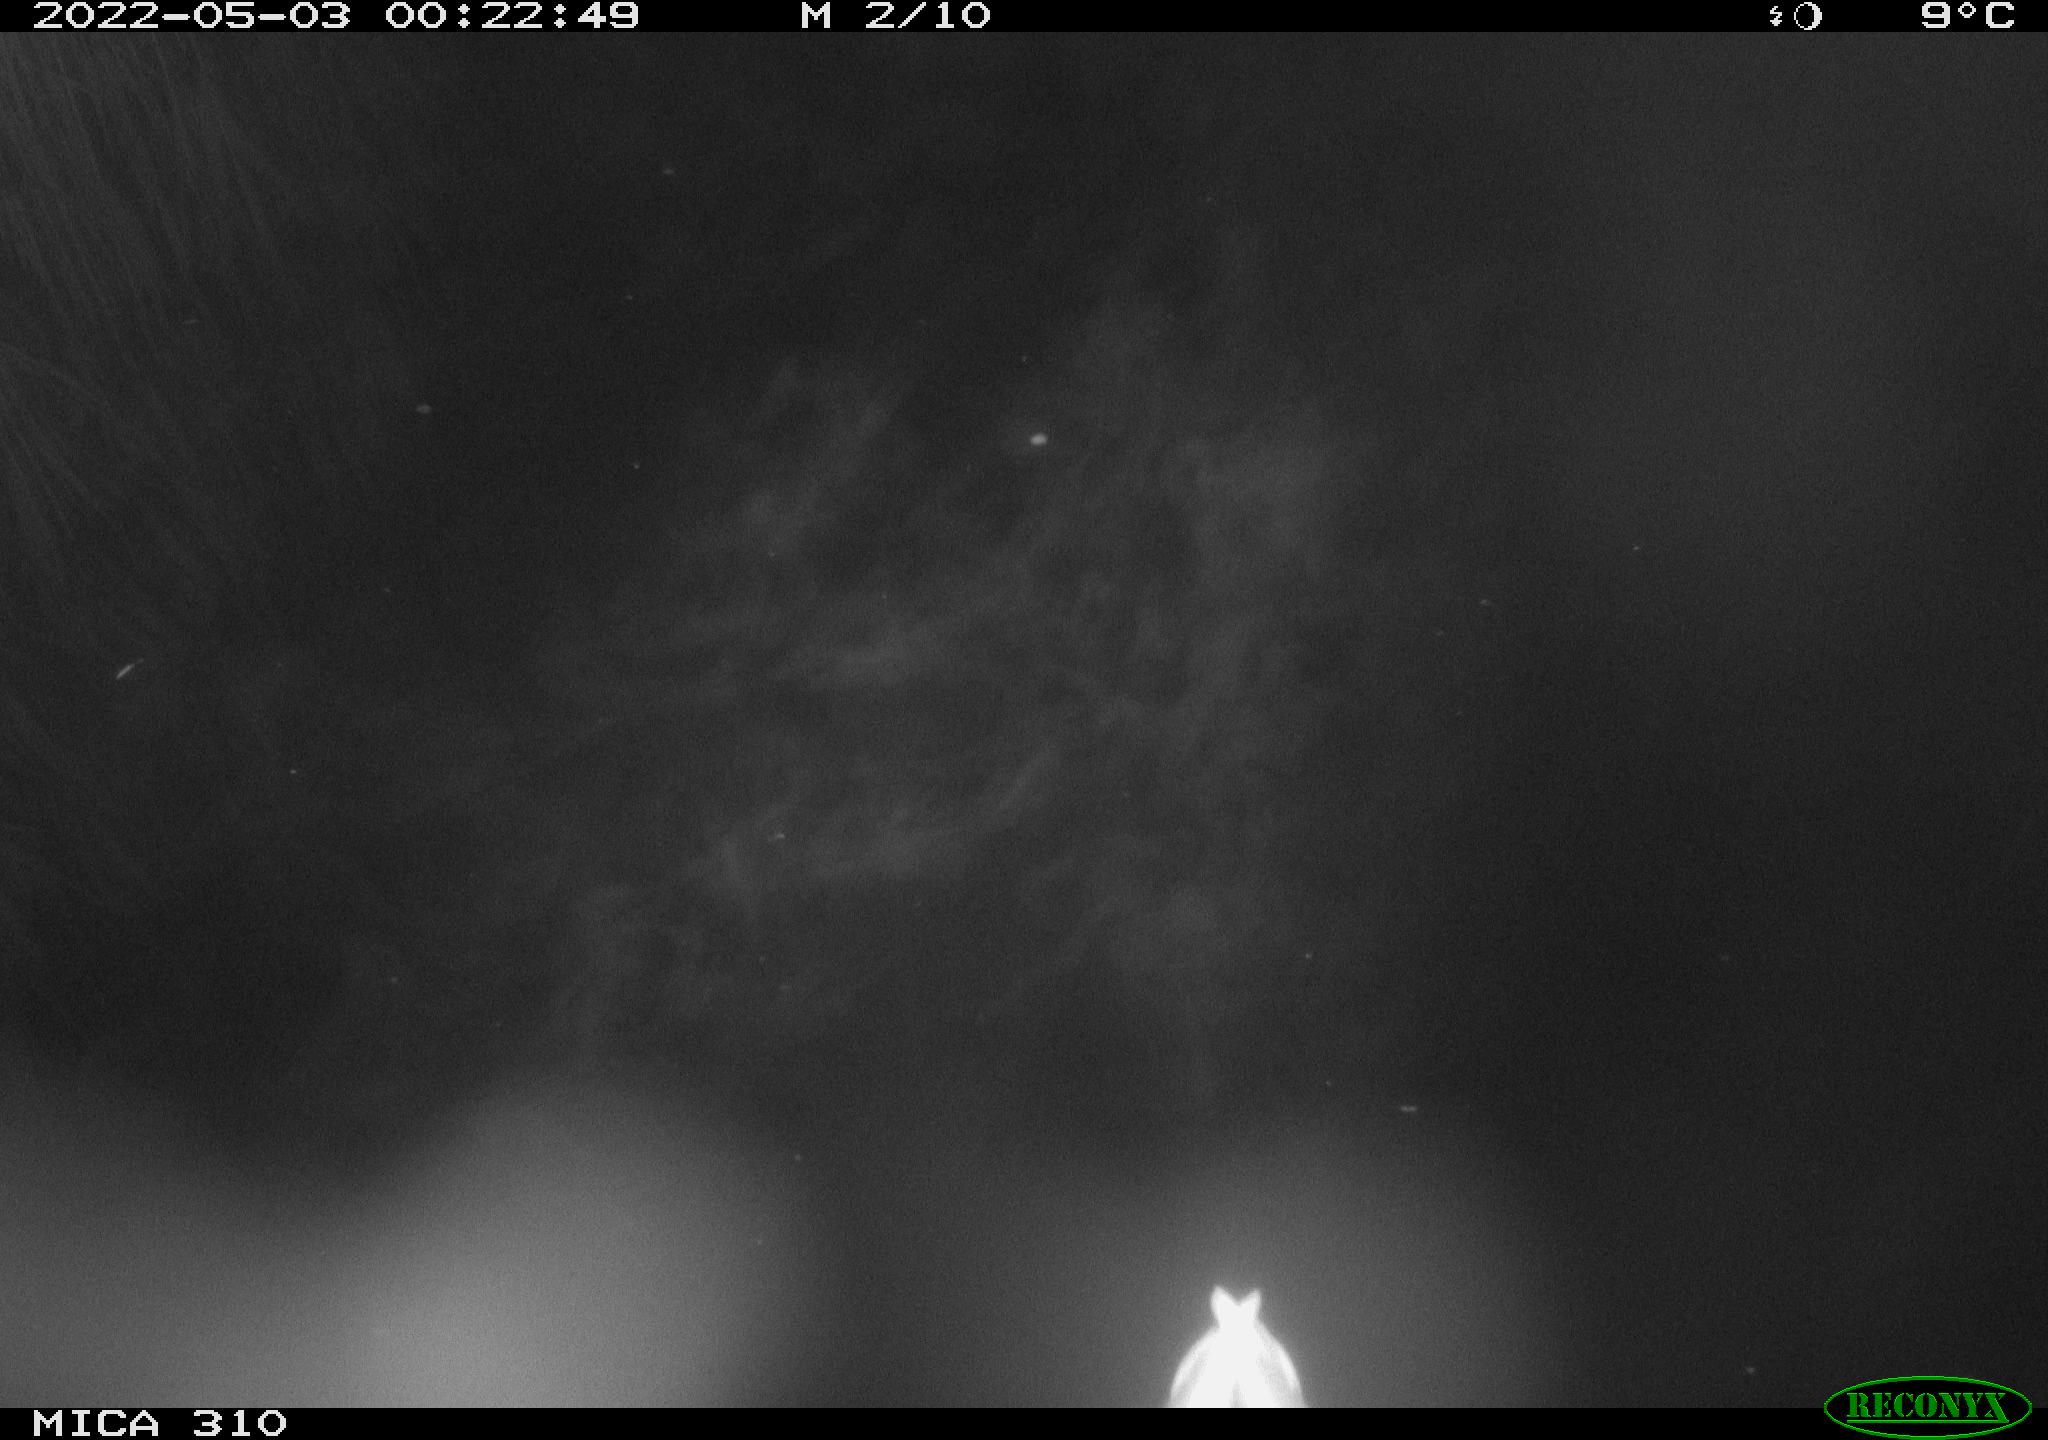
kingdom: Animalia
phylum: Chordata
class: Aves
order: Anseriformes
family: Anatidae
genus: Anas
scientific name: Anas platyrhynchos
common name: Mallard
